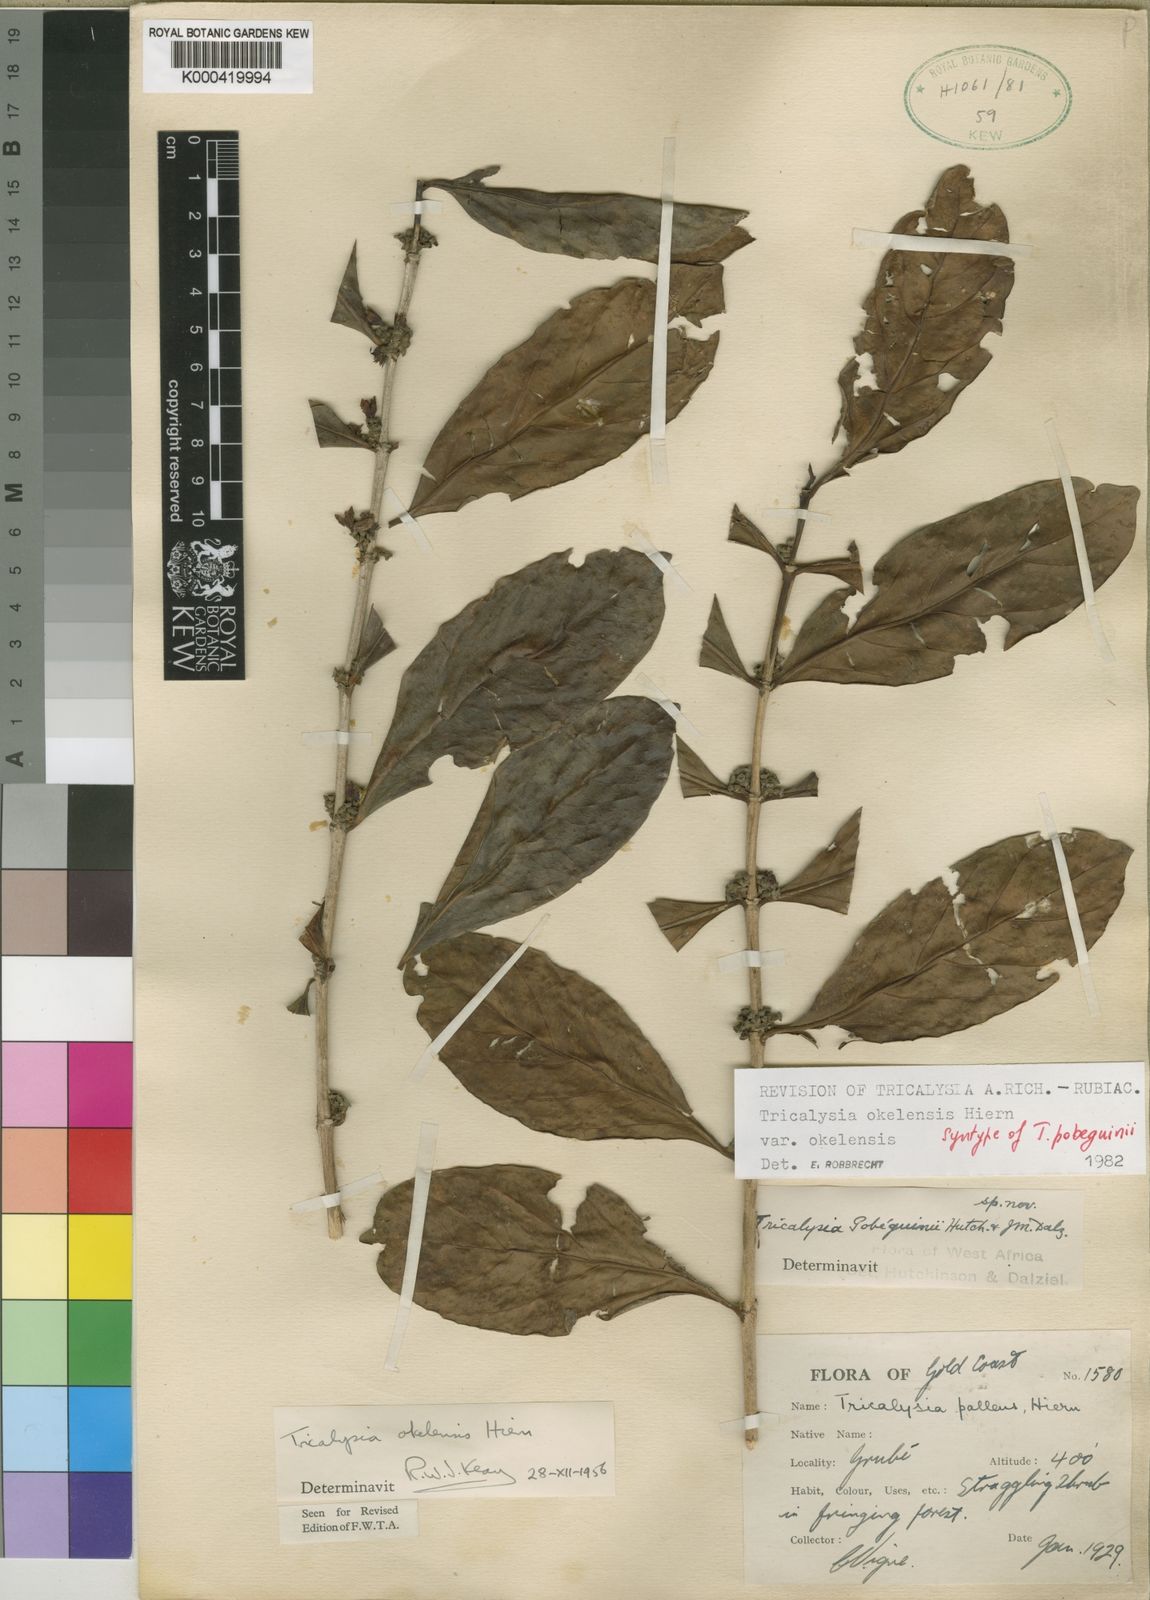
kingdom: Plantae
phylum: Tracheophyta
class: Magnoliopsida
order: Gentianales
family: Rubiaceae
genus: Tricalysia
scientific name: Tricalysia okelensis
